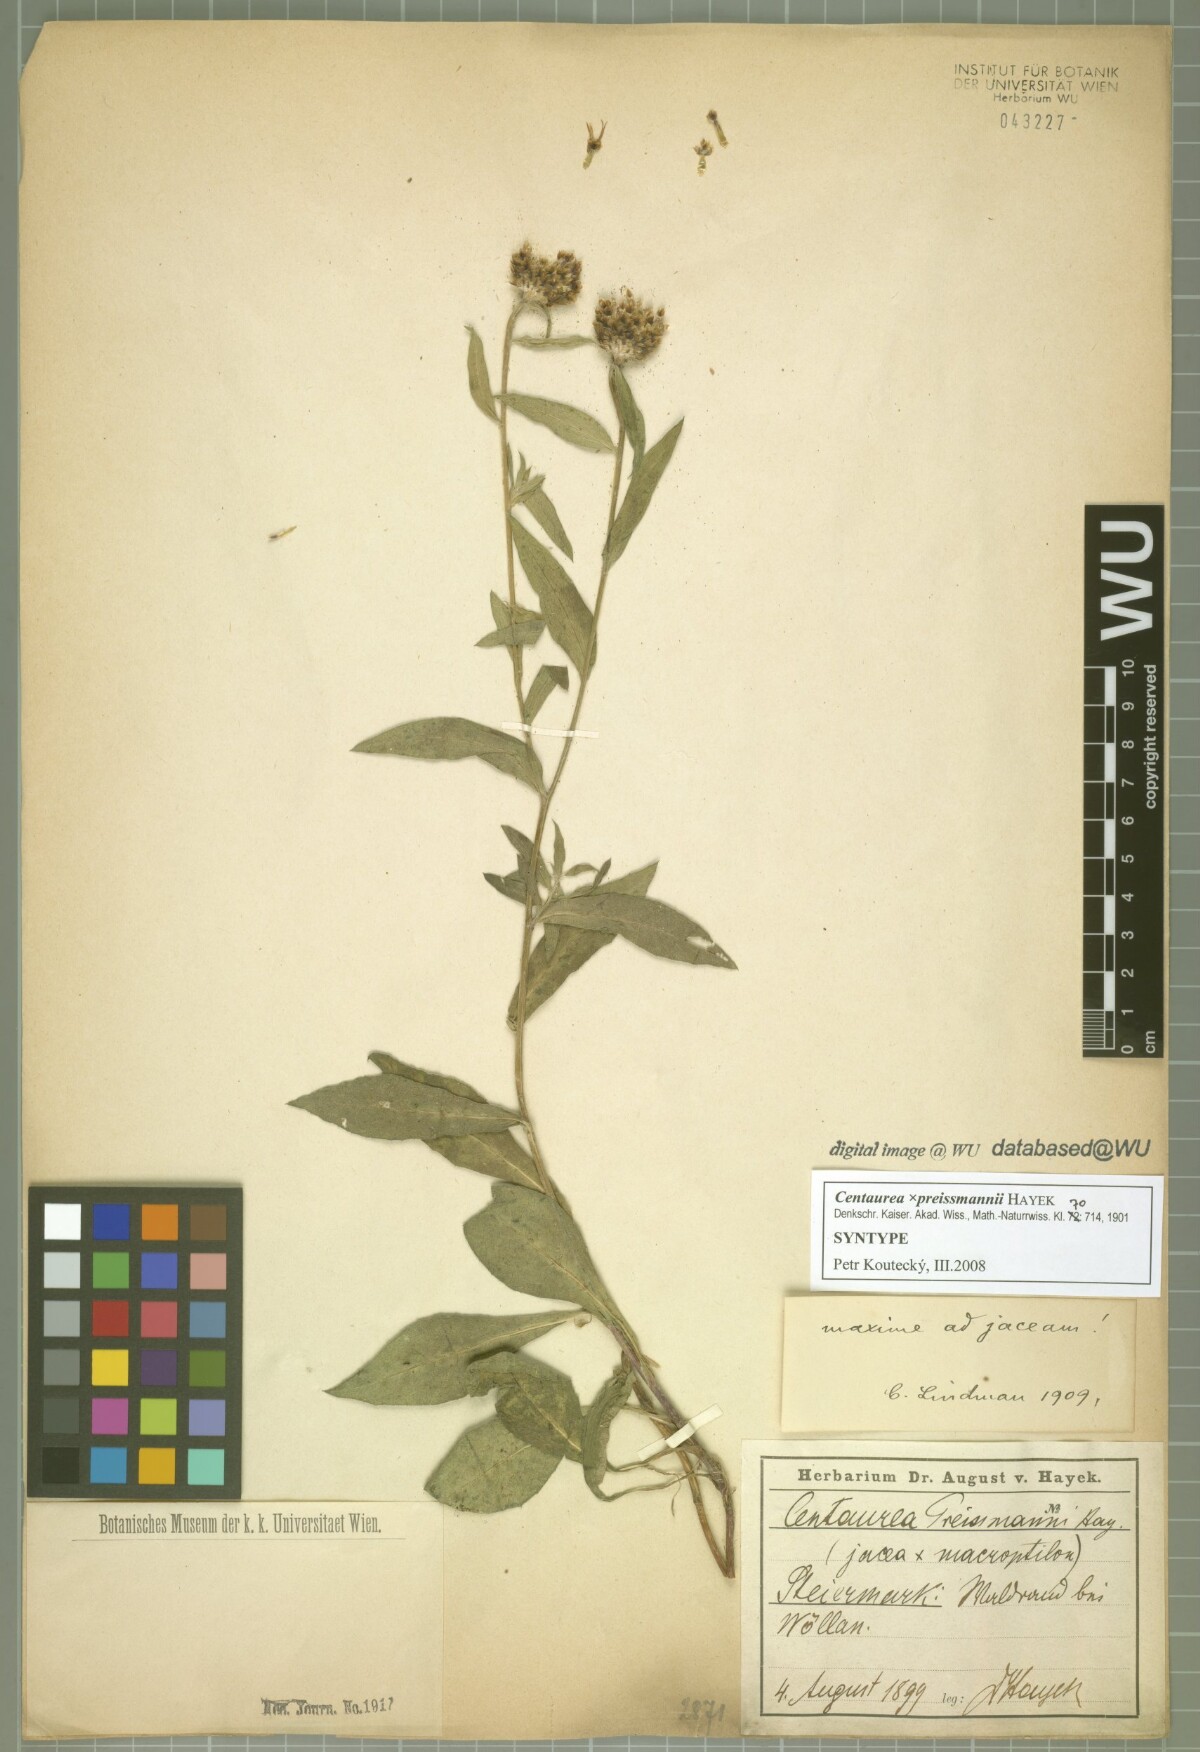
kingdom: Plantae
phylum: Tracheophyta
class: Magnoliopsida
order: Asterales
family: Asteraceae
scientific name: Asteraceae
